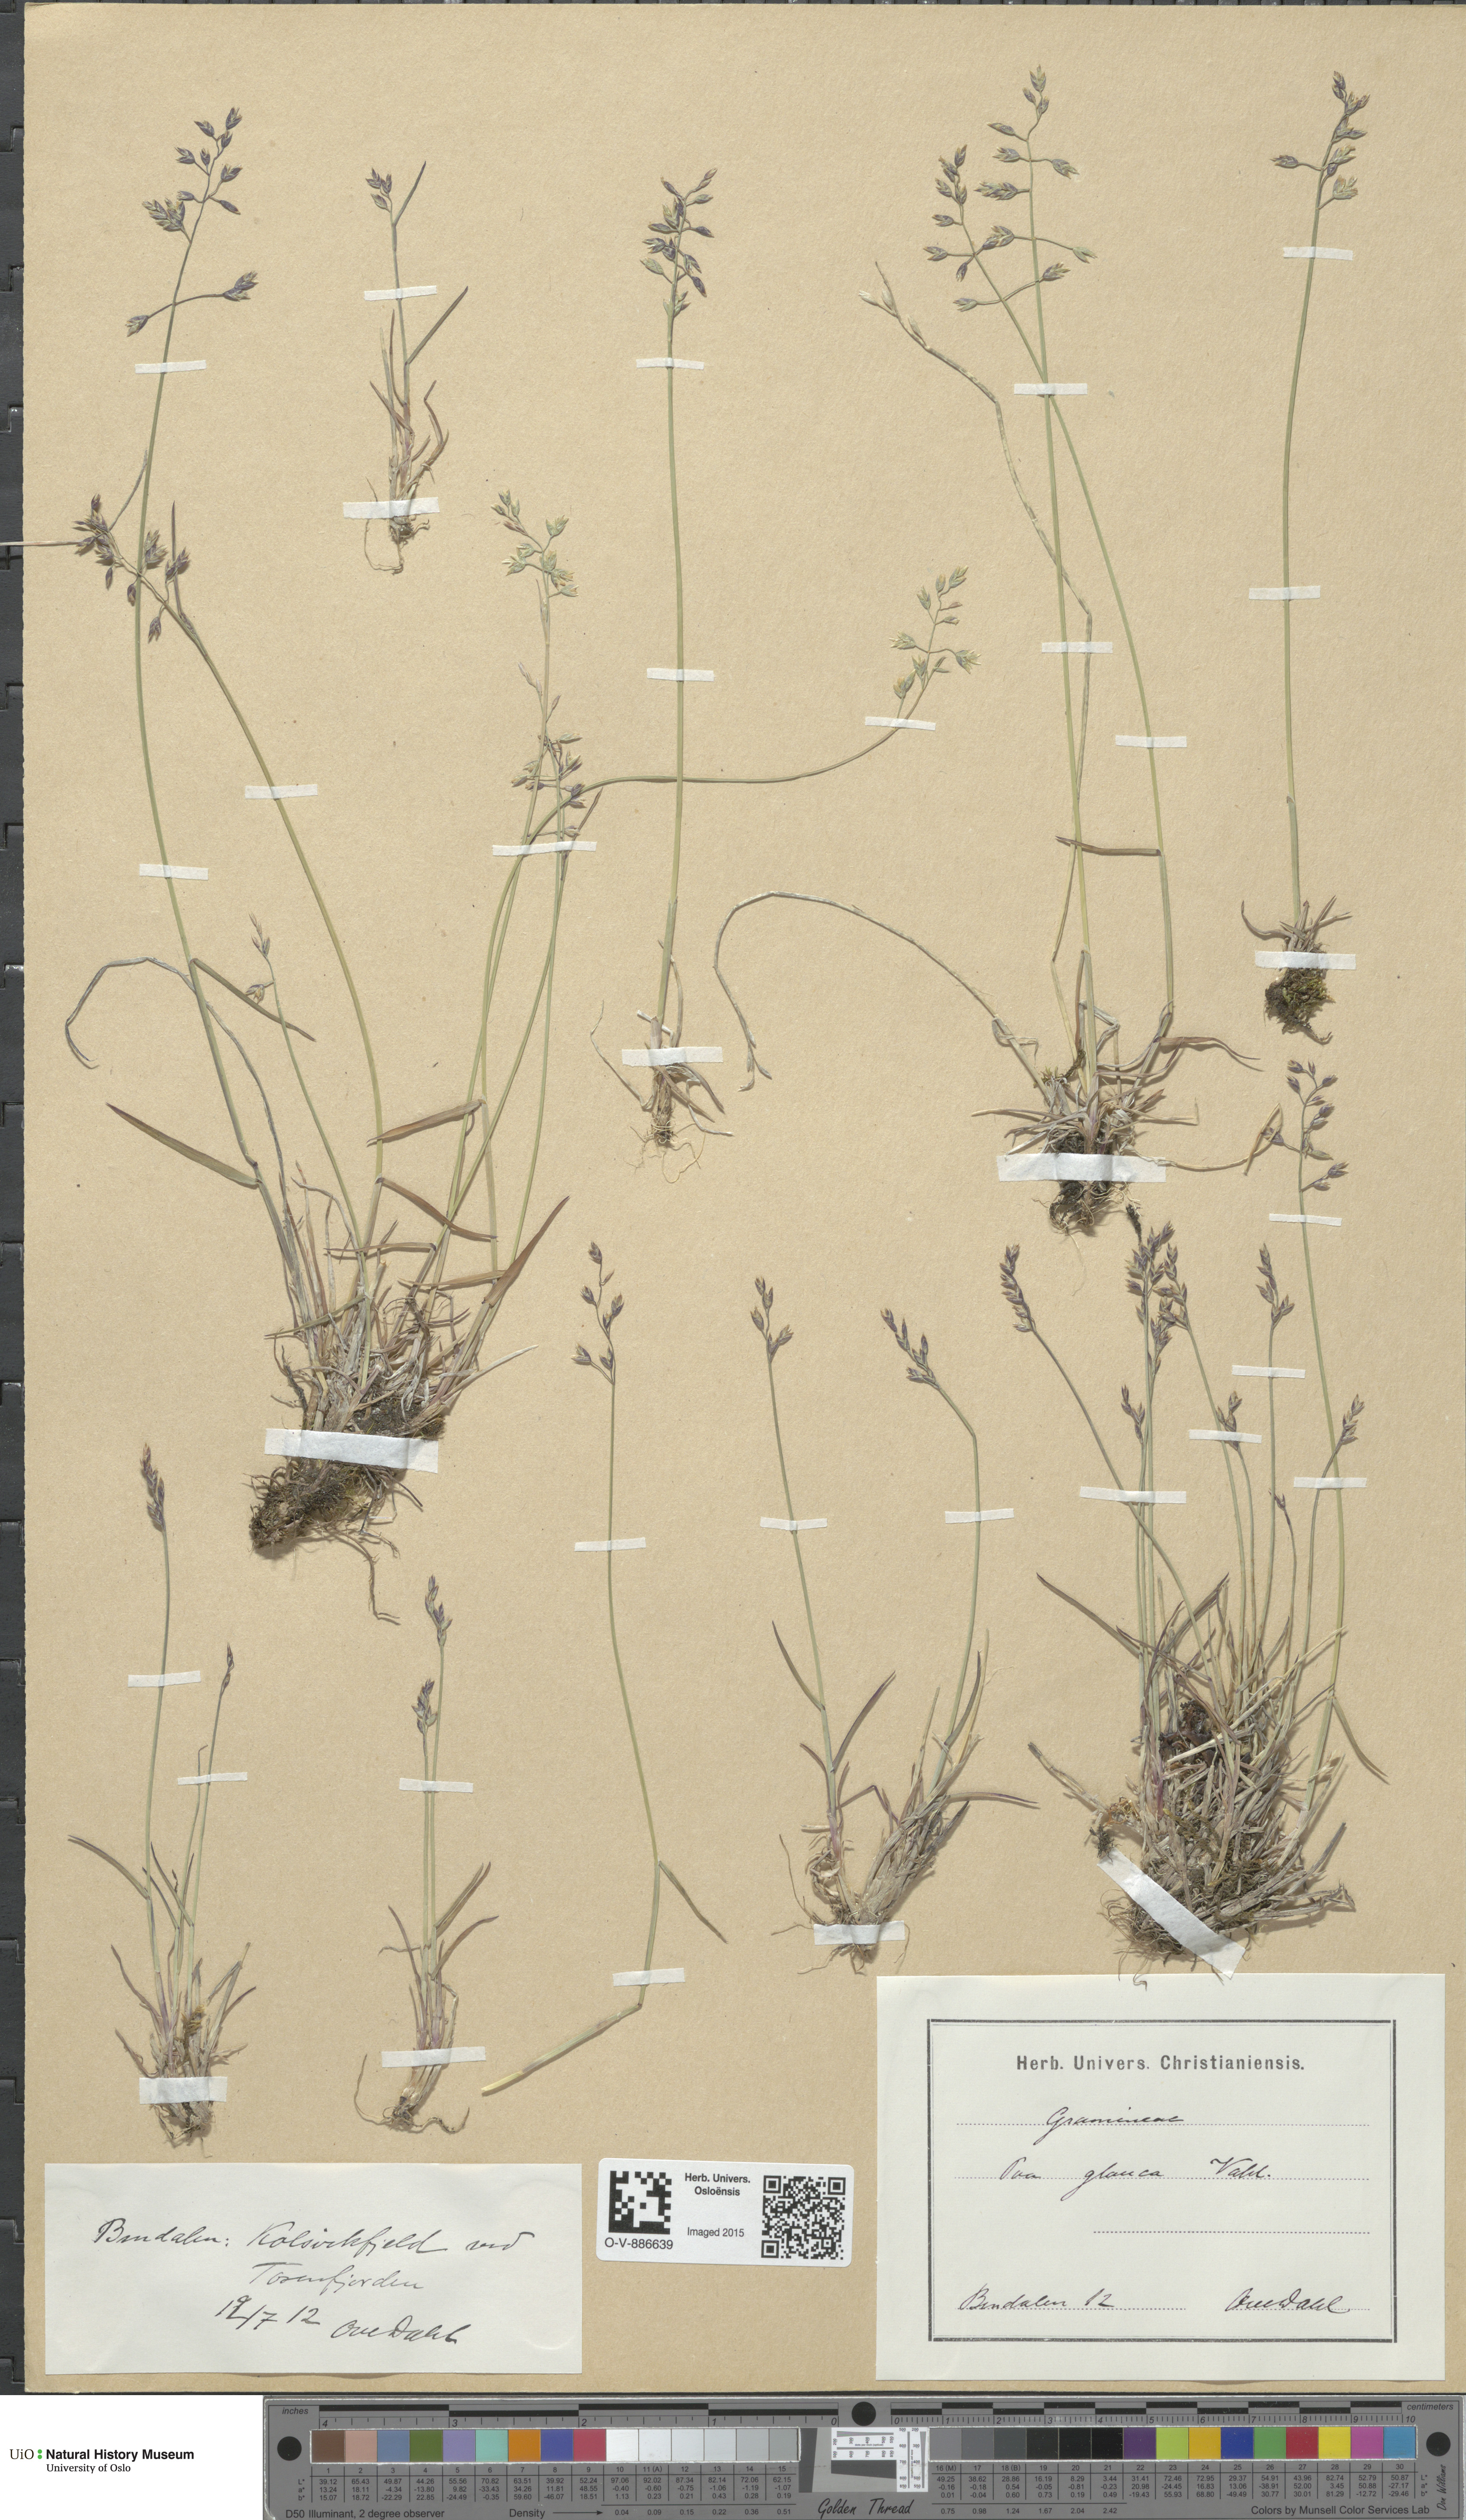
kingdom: Plantae
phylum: Tracheophyta
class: Liliopsida
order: Poales
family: Poaceae
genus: Poa
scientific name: Poa glauca
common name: Glaucous bluegrass
